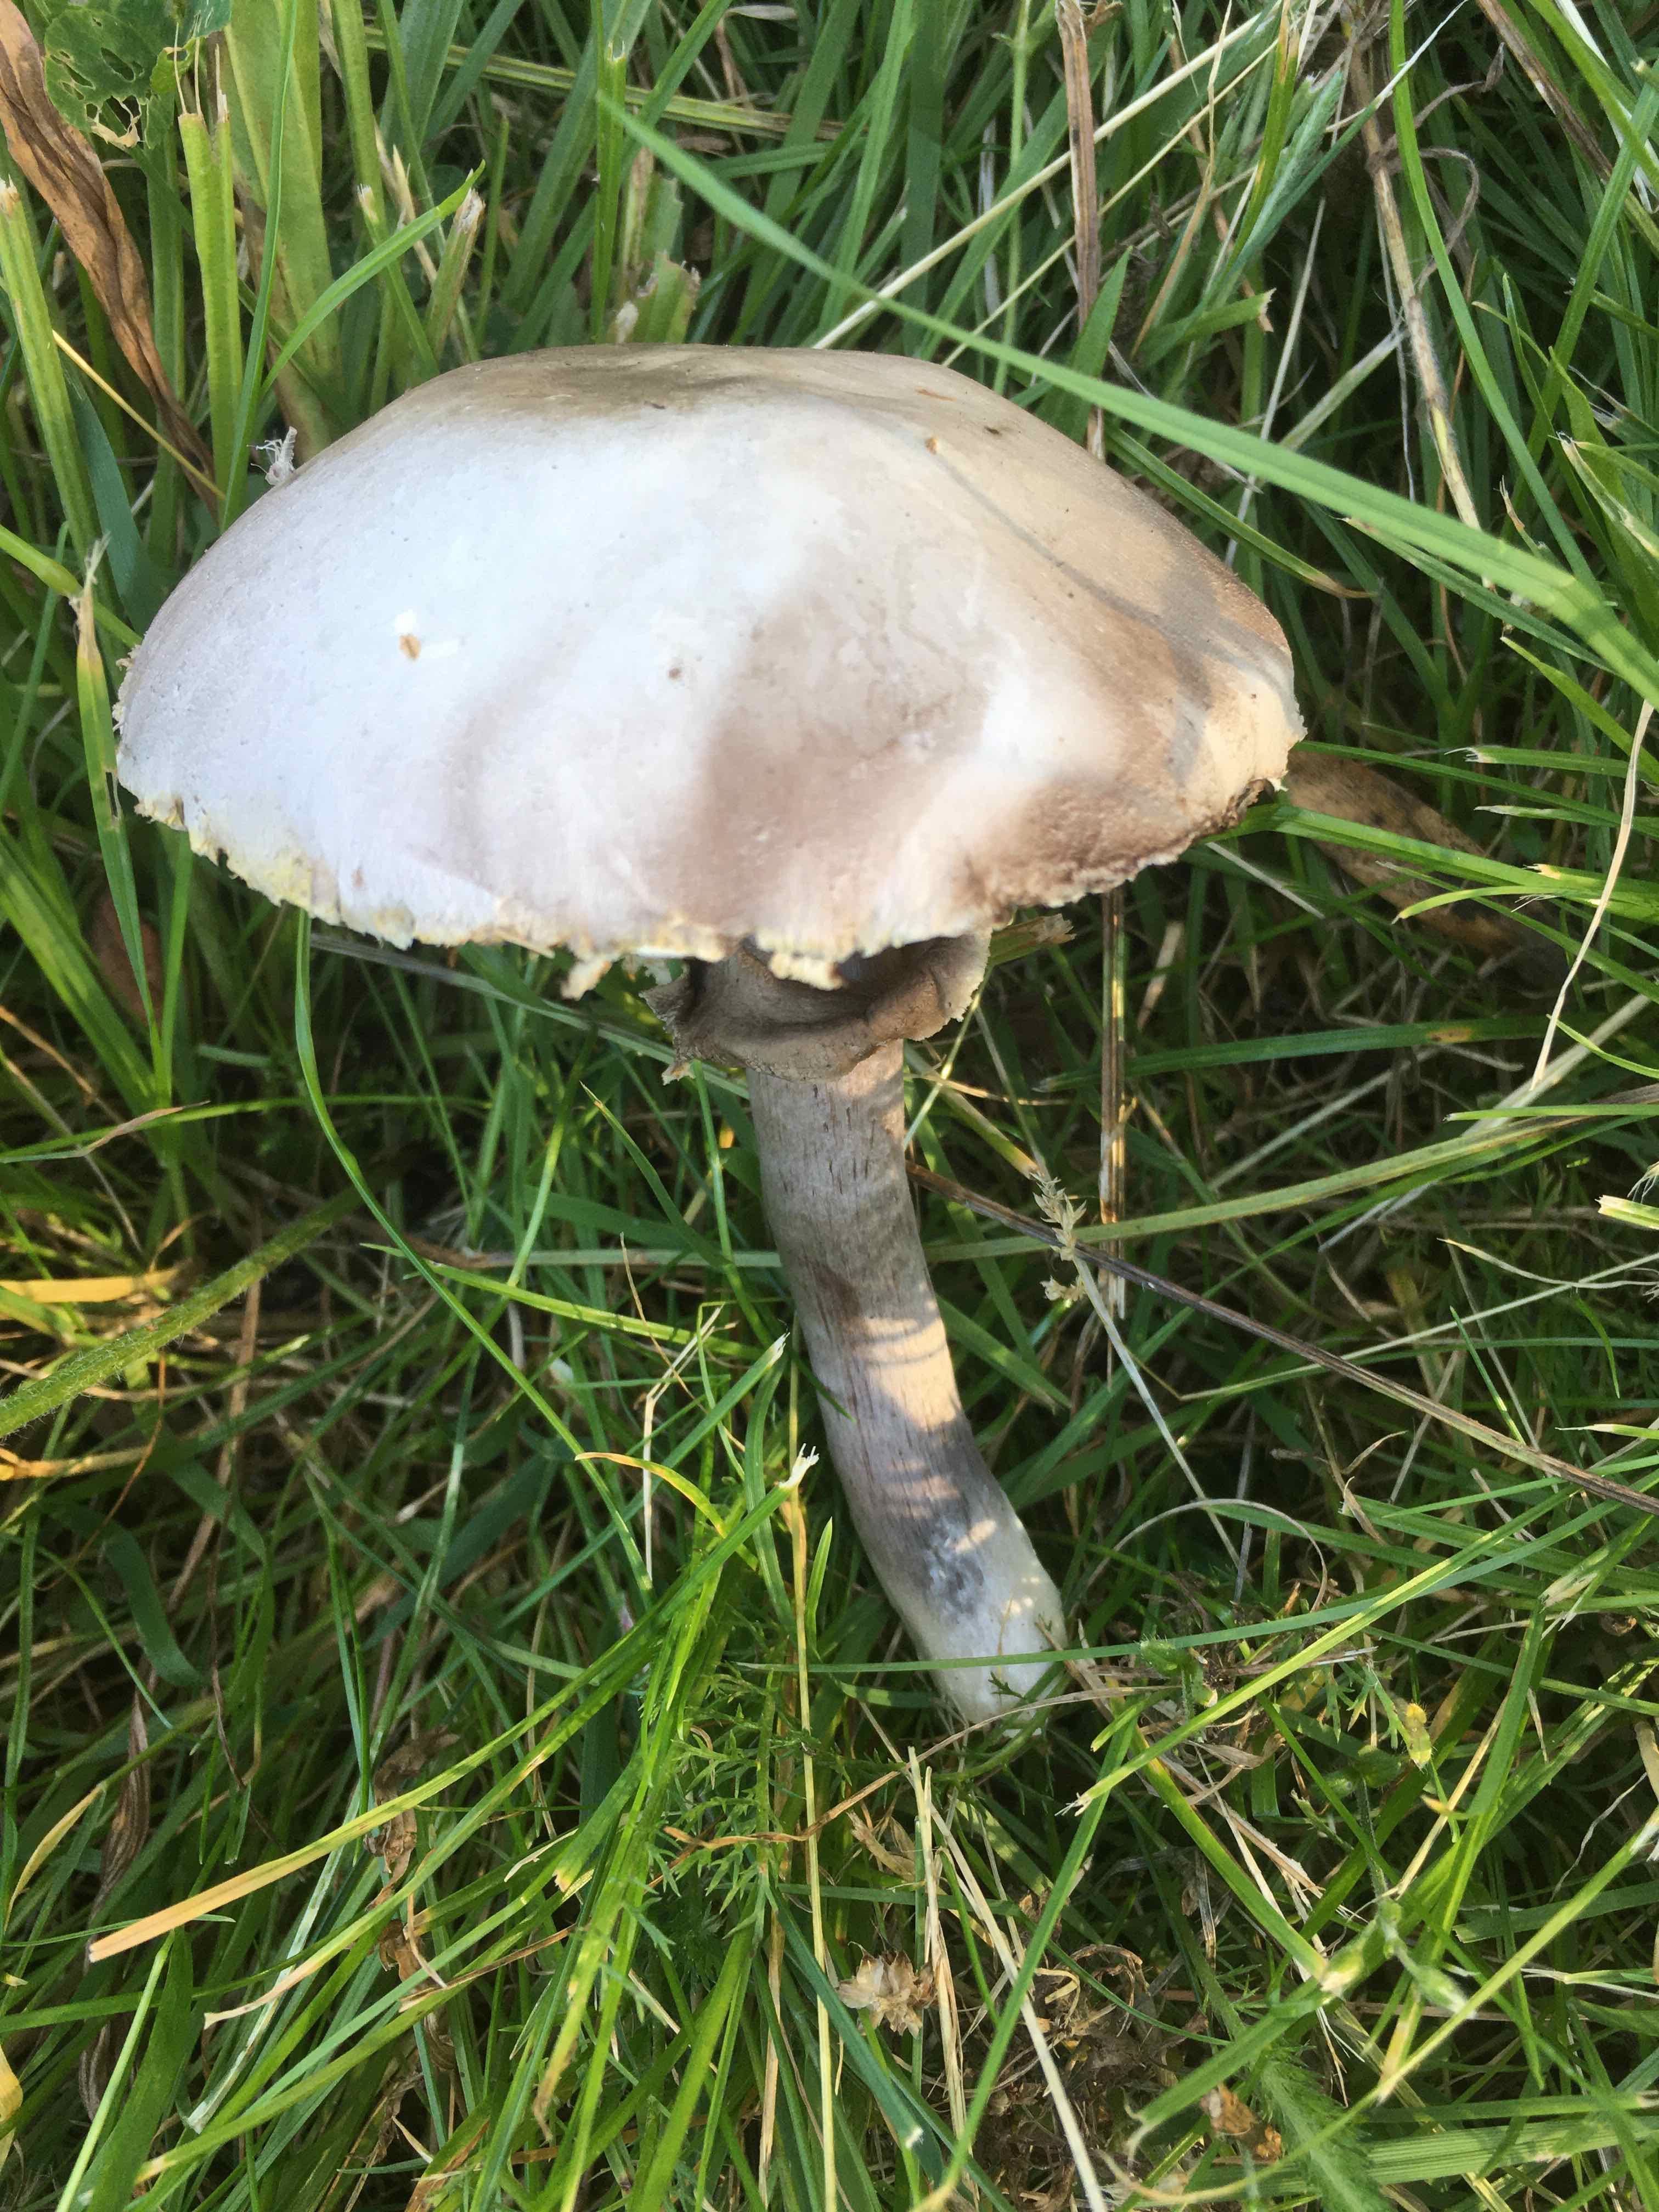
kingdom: Fungi
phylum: Basidiomycota
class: Agaricomycetes
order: Agaricales
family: Agaricaceae
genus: Agaricus
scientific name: Agaricus xanthodermus
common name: karbol-champignon
